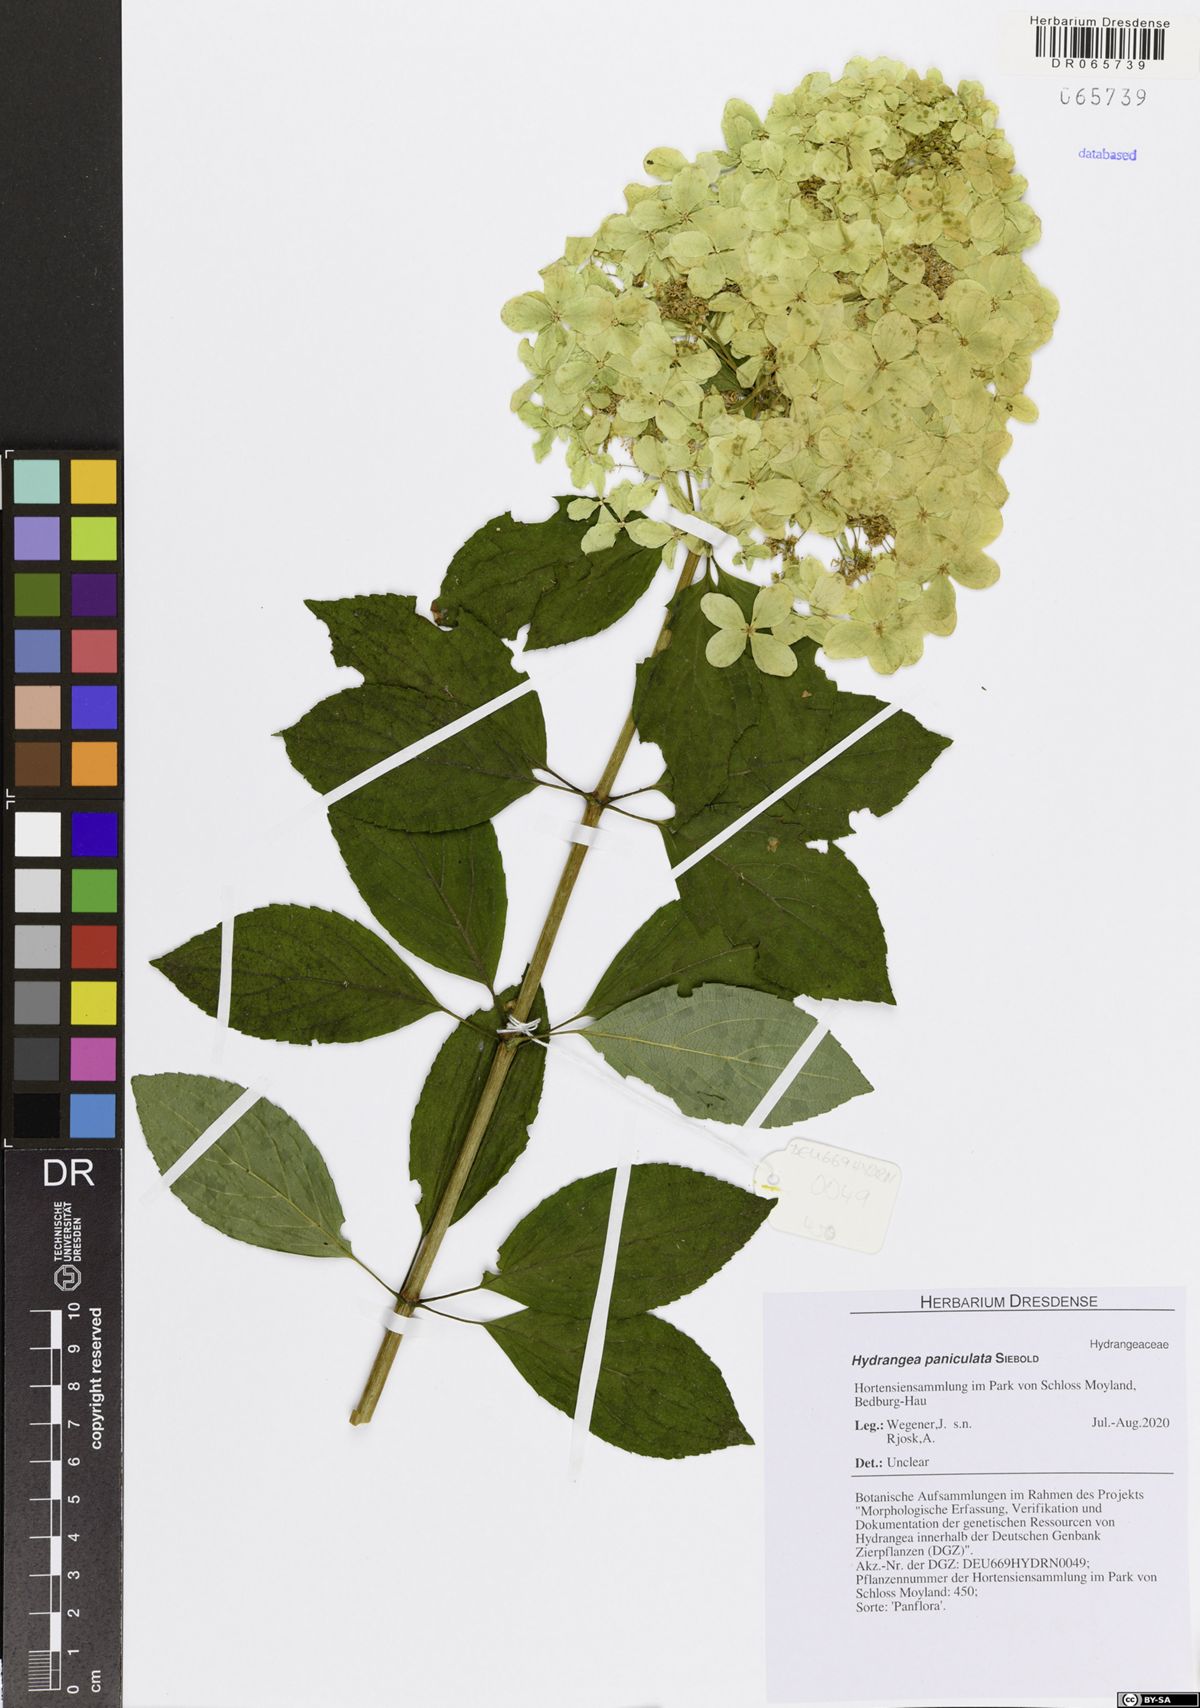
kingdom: Plantae
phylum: Tracheophyta
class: Magnoliopsida
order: Cornales
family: Hydrangeaceae
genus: Hydrangea
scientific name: Hydrangea paniculata
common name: Panicled hydrangea
